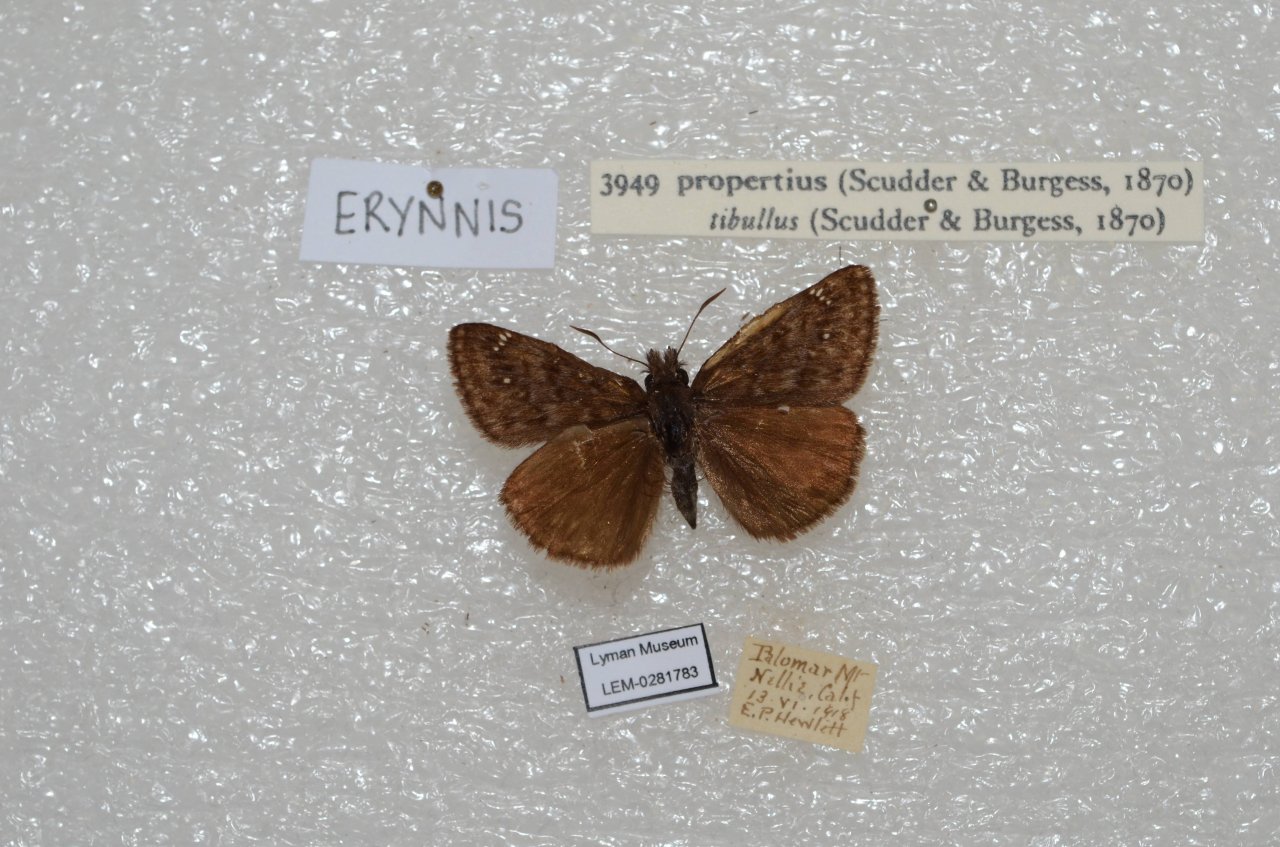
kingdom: Animalia
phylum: Arthropoda
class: Insecta
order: Lepidoptera
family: Hesperiidae
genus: Erynnis
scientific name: Erynnis propertius
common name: Propertius Duskywing
